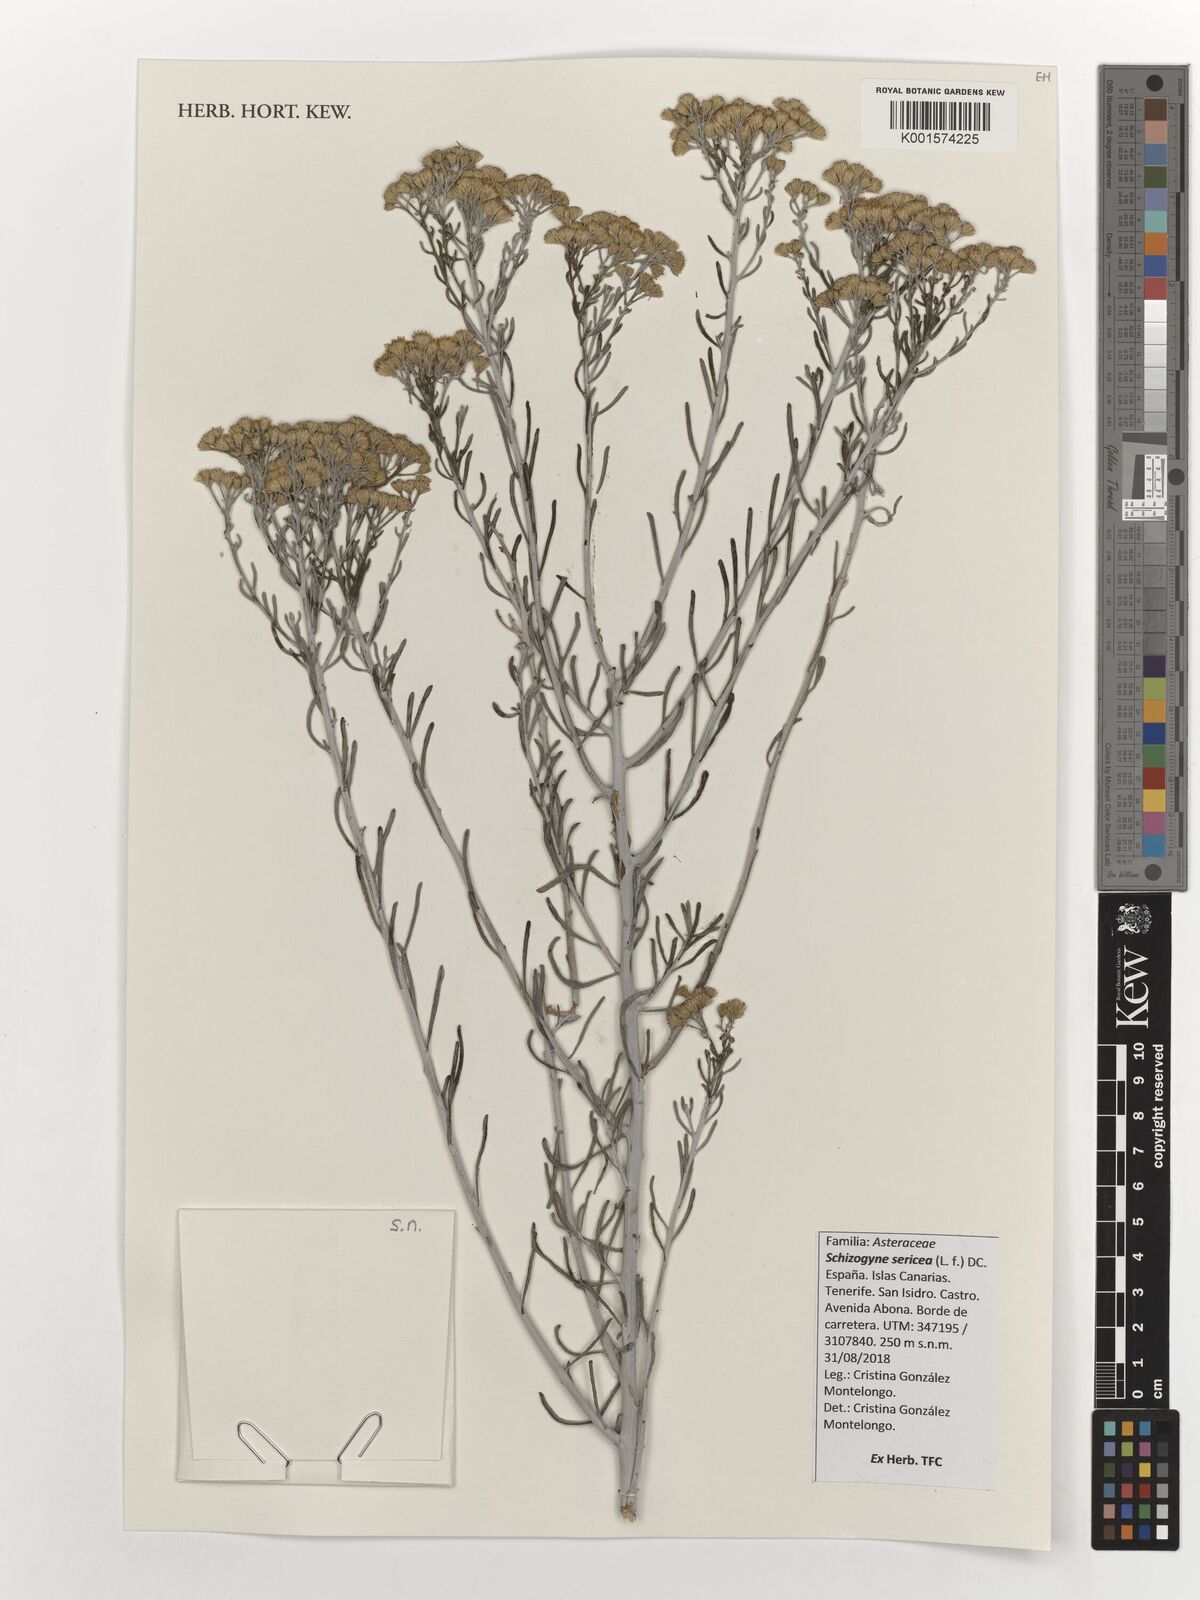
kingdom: Plantae
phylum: Tracheophyta
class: Magnoliopsida
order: Asterales
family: Asteraceae
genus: Schizogyne
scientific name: Schizogyne sericea
